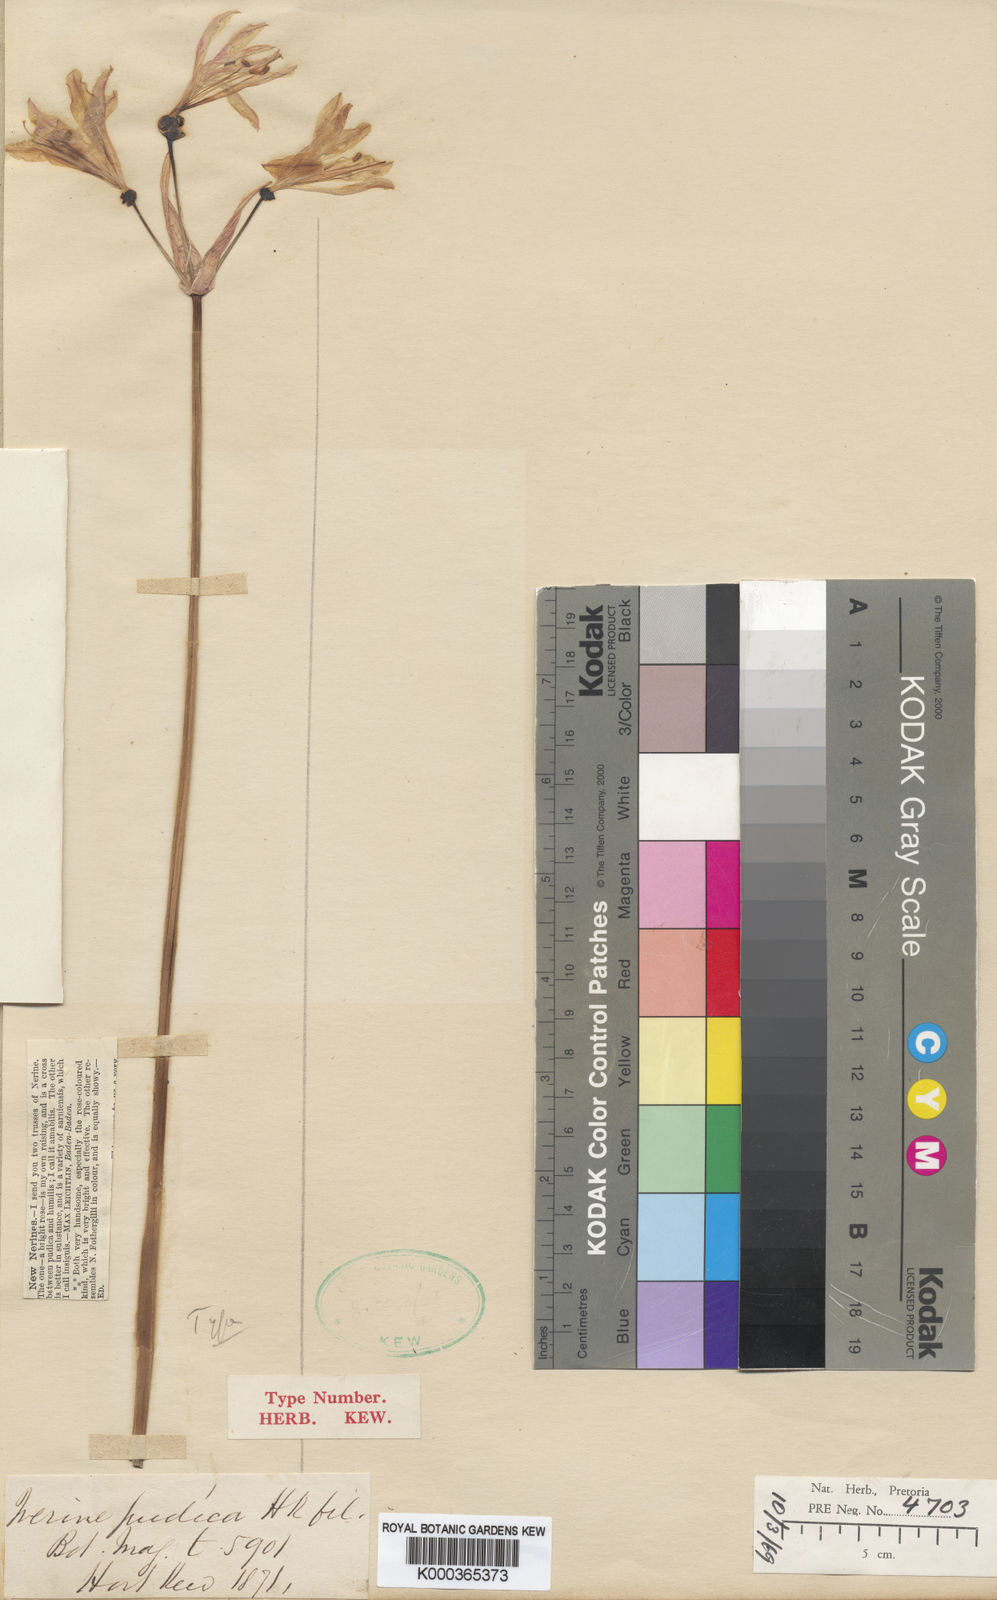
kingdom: Plantae
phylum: Tracheophyta
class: Liliopsida
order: Asparagales
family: Amaryllidaceae
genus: Nerine
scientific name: Nerine pudica
